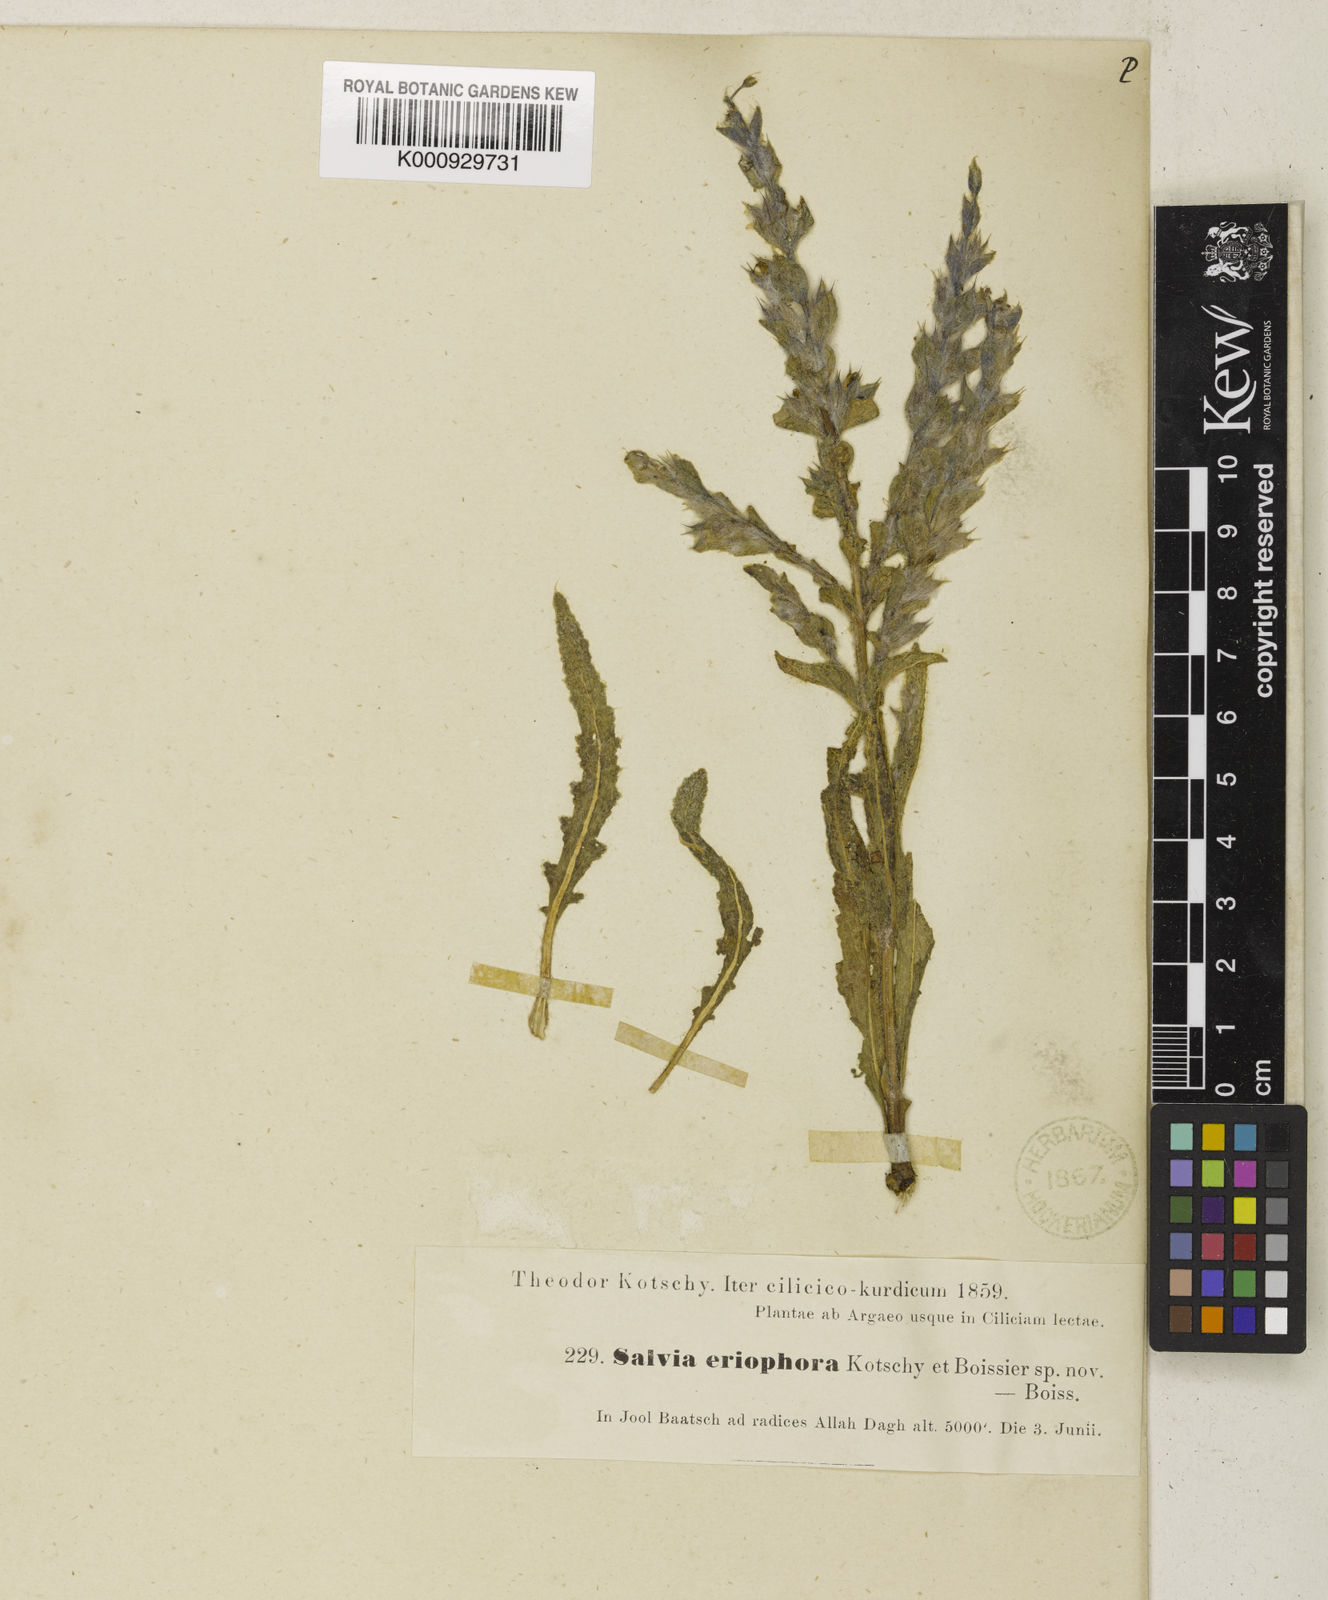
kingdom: Plantae
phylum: Tracheophyta
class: Magnoliopsida
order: Lamiales
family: Lamiaceae
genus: Salvia
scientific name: Salvia eriophora
